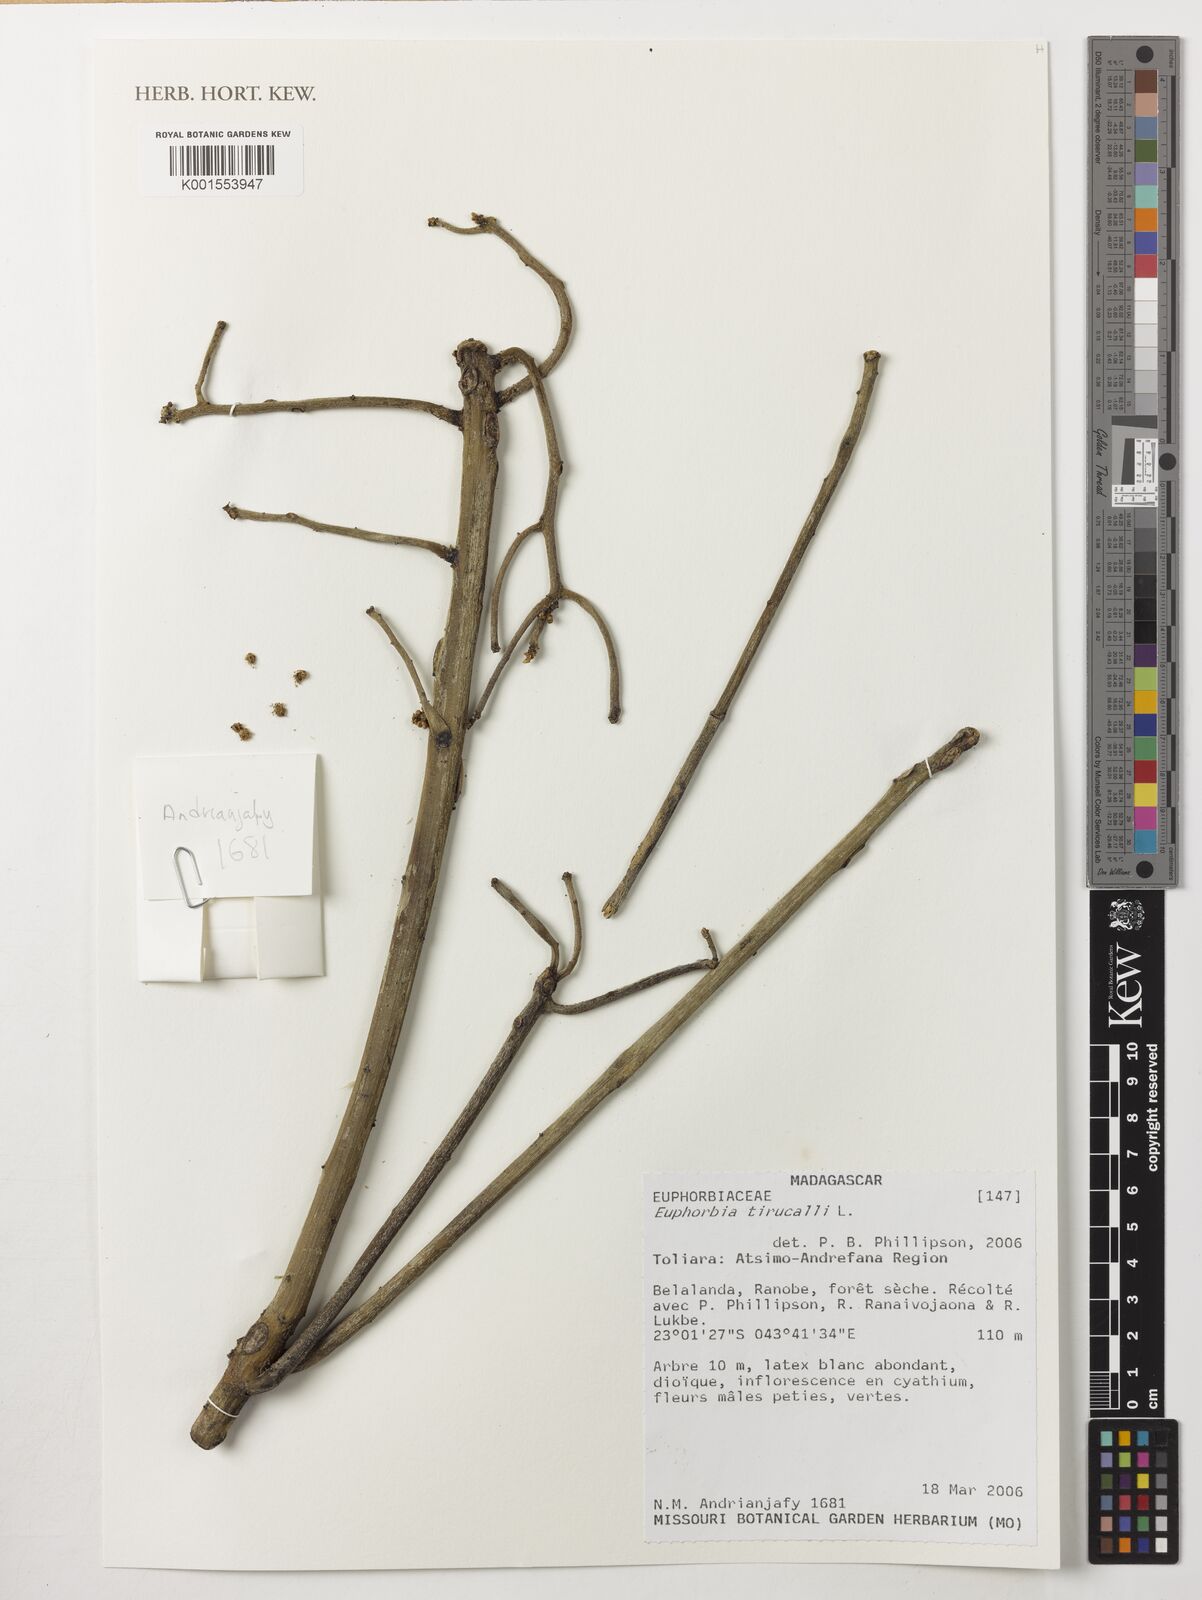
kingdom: Plantae
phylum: Tracheophyta
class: Magnoliopsida
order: Malpighiales
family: Euphorbiaceae
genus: Euphorbia
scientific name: Euphorbia tirucalli
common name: Indiantree spurge
